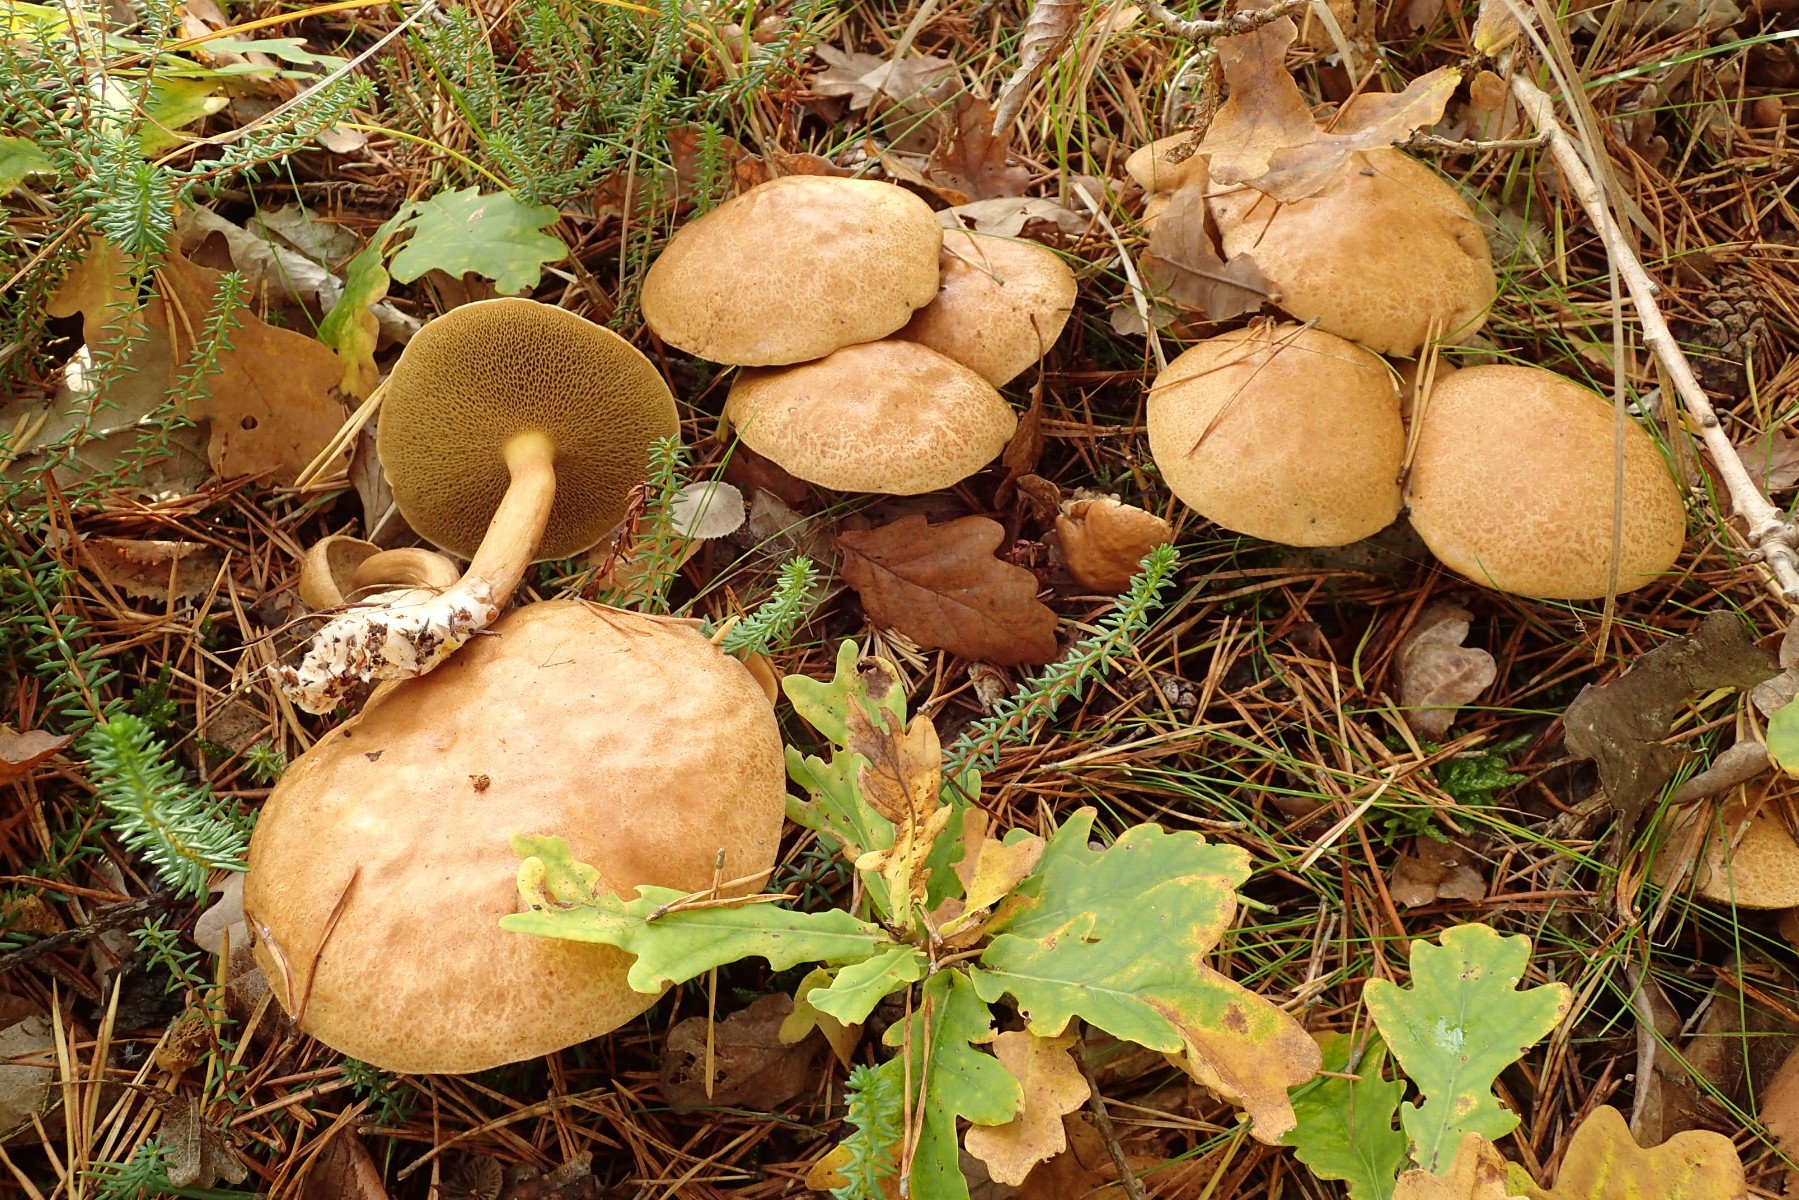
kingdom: Fungi
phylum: Basidiomycota
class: Agaricomycetes
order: Boletales
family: Suillaceae
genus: Suillus
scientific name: Suillus bovinus
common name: grovporet slimrørhat
